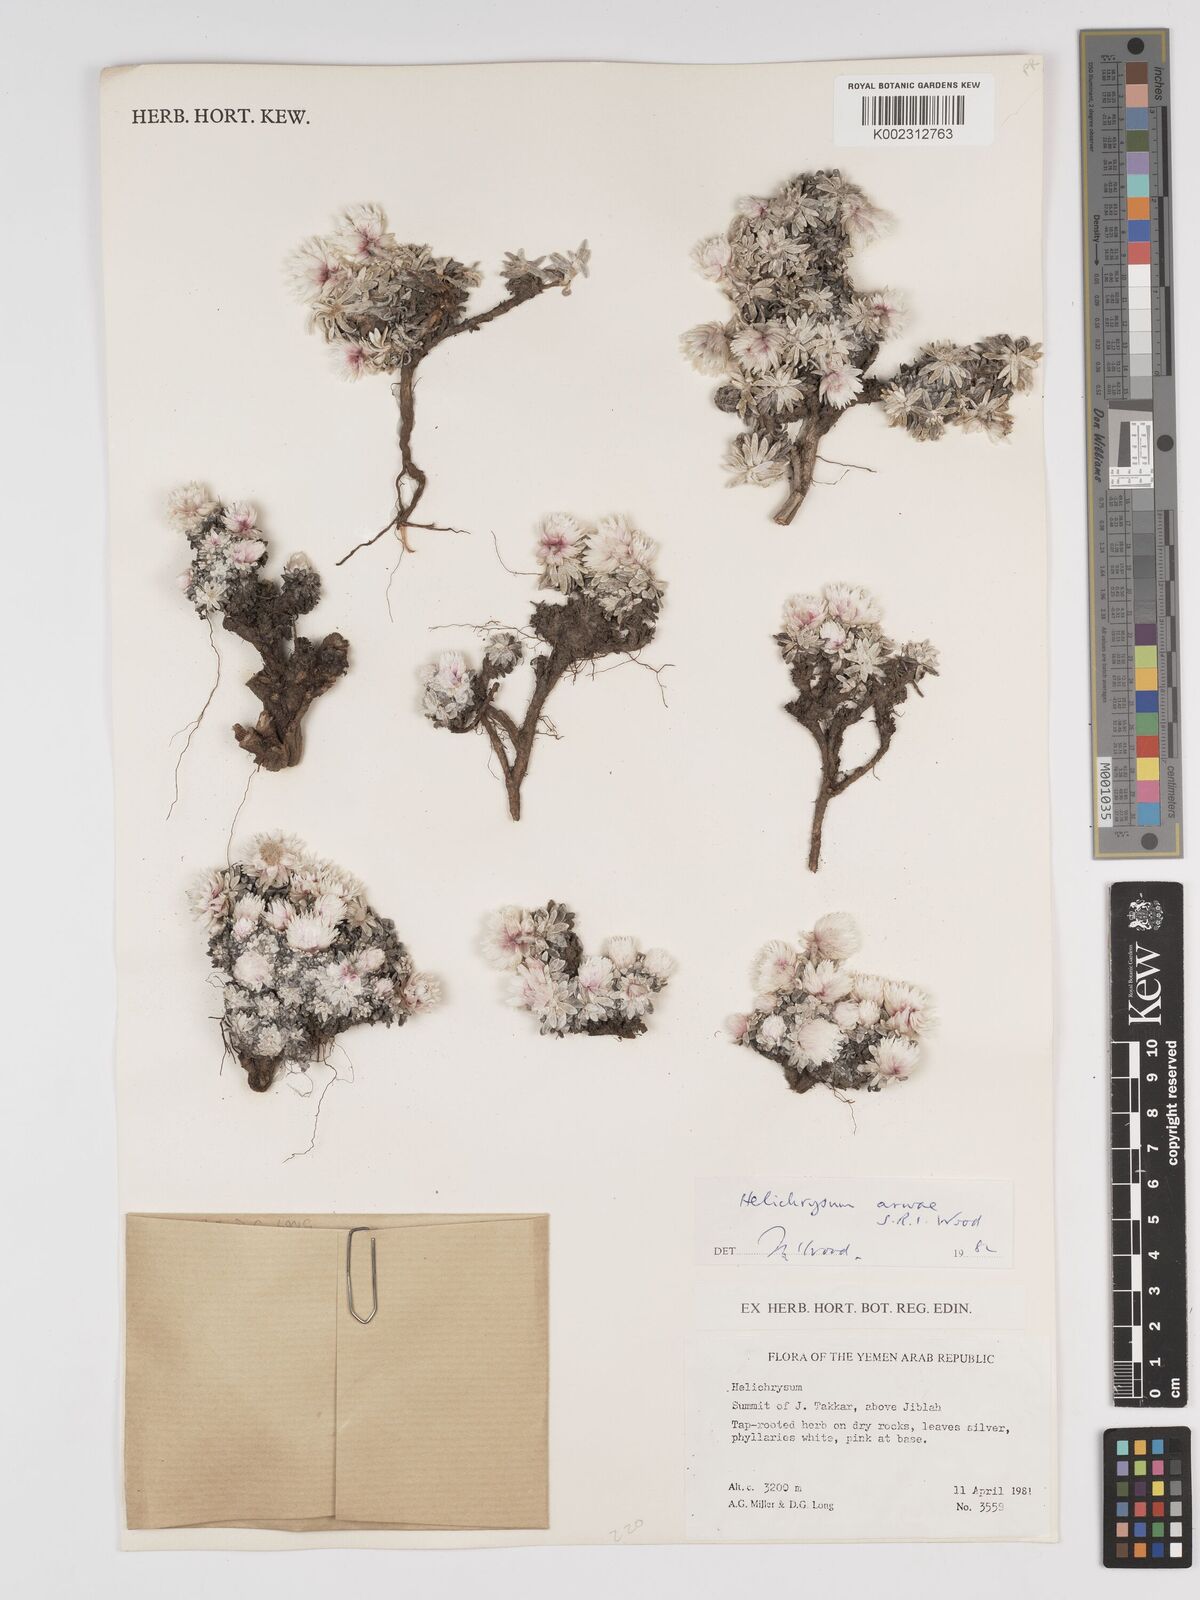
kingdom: Plantae
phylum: Tracheophyta
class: Magnoliopsida
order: Asterales
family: Asteraceae
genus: Helichrysum
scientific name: Helichrysum arwae
